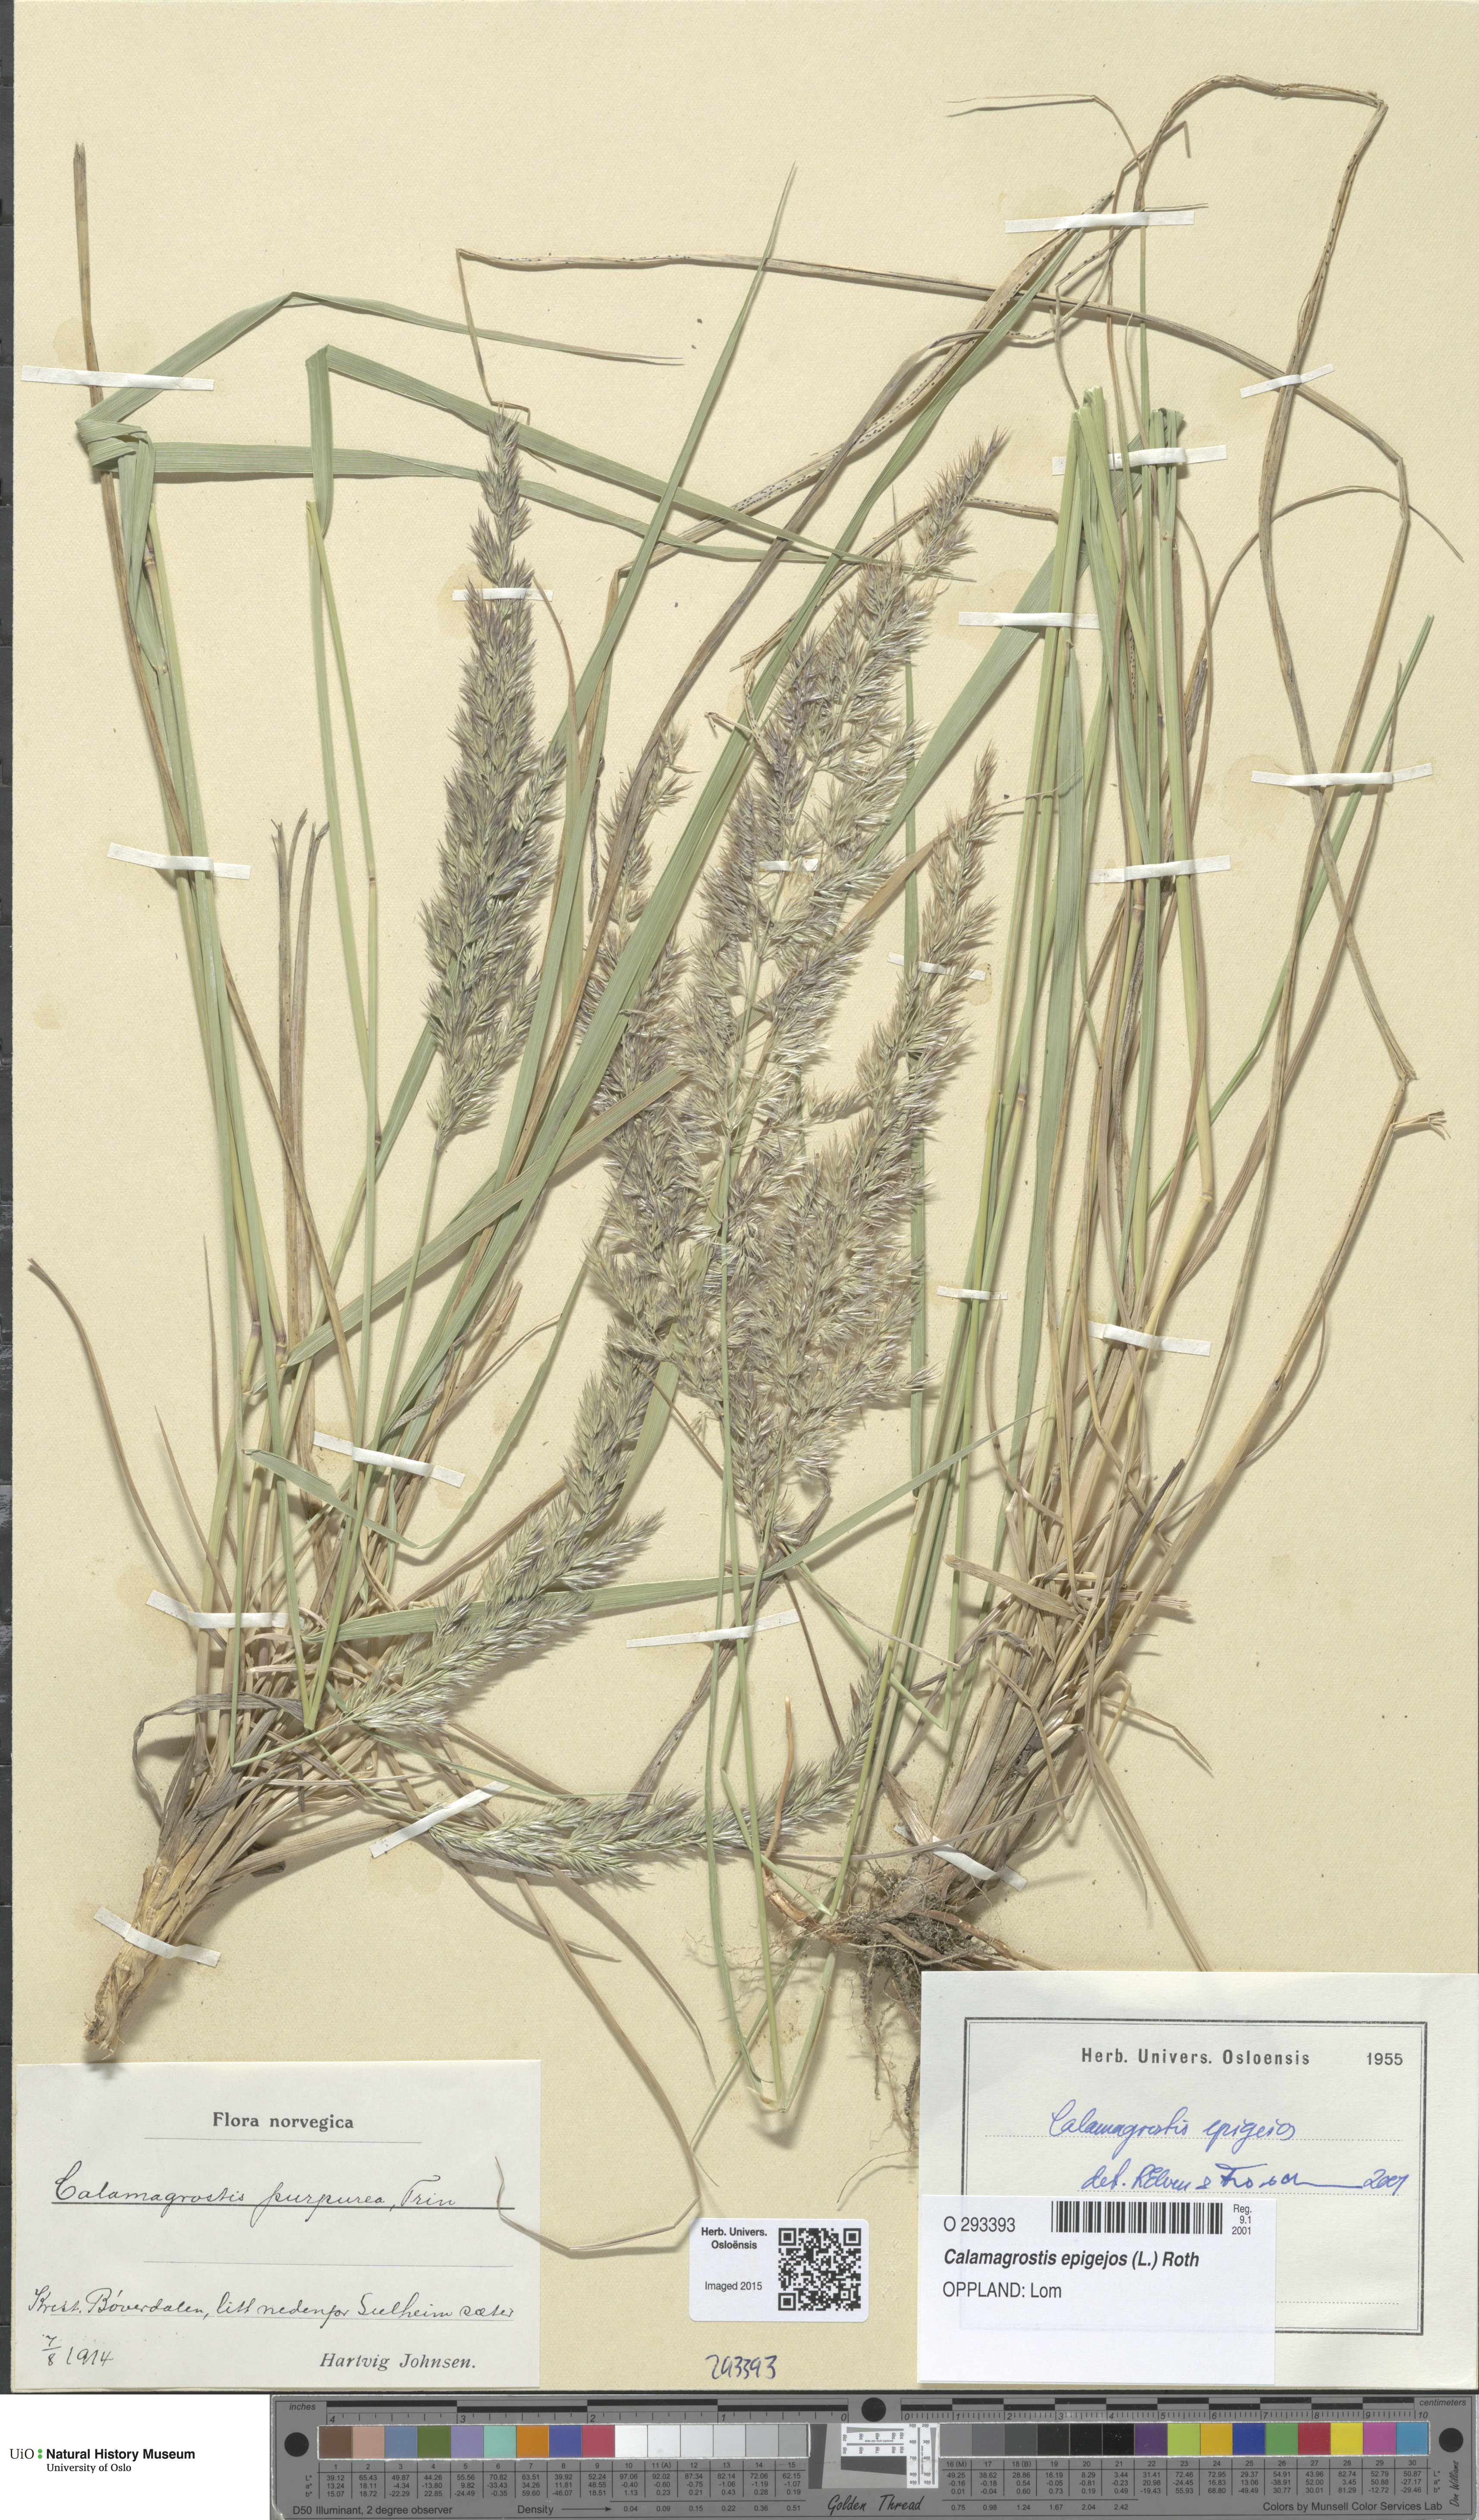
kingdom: Plantae
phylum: Tracheophyta
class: Liliopsida
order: Poales
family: Poaceae
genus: Calamagrostis
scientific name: Calamagrostis epigejos
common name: Wood small-reed
